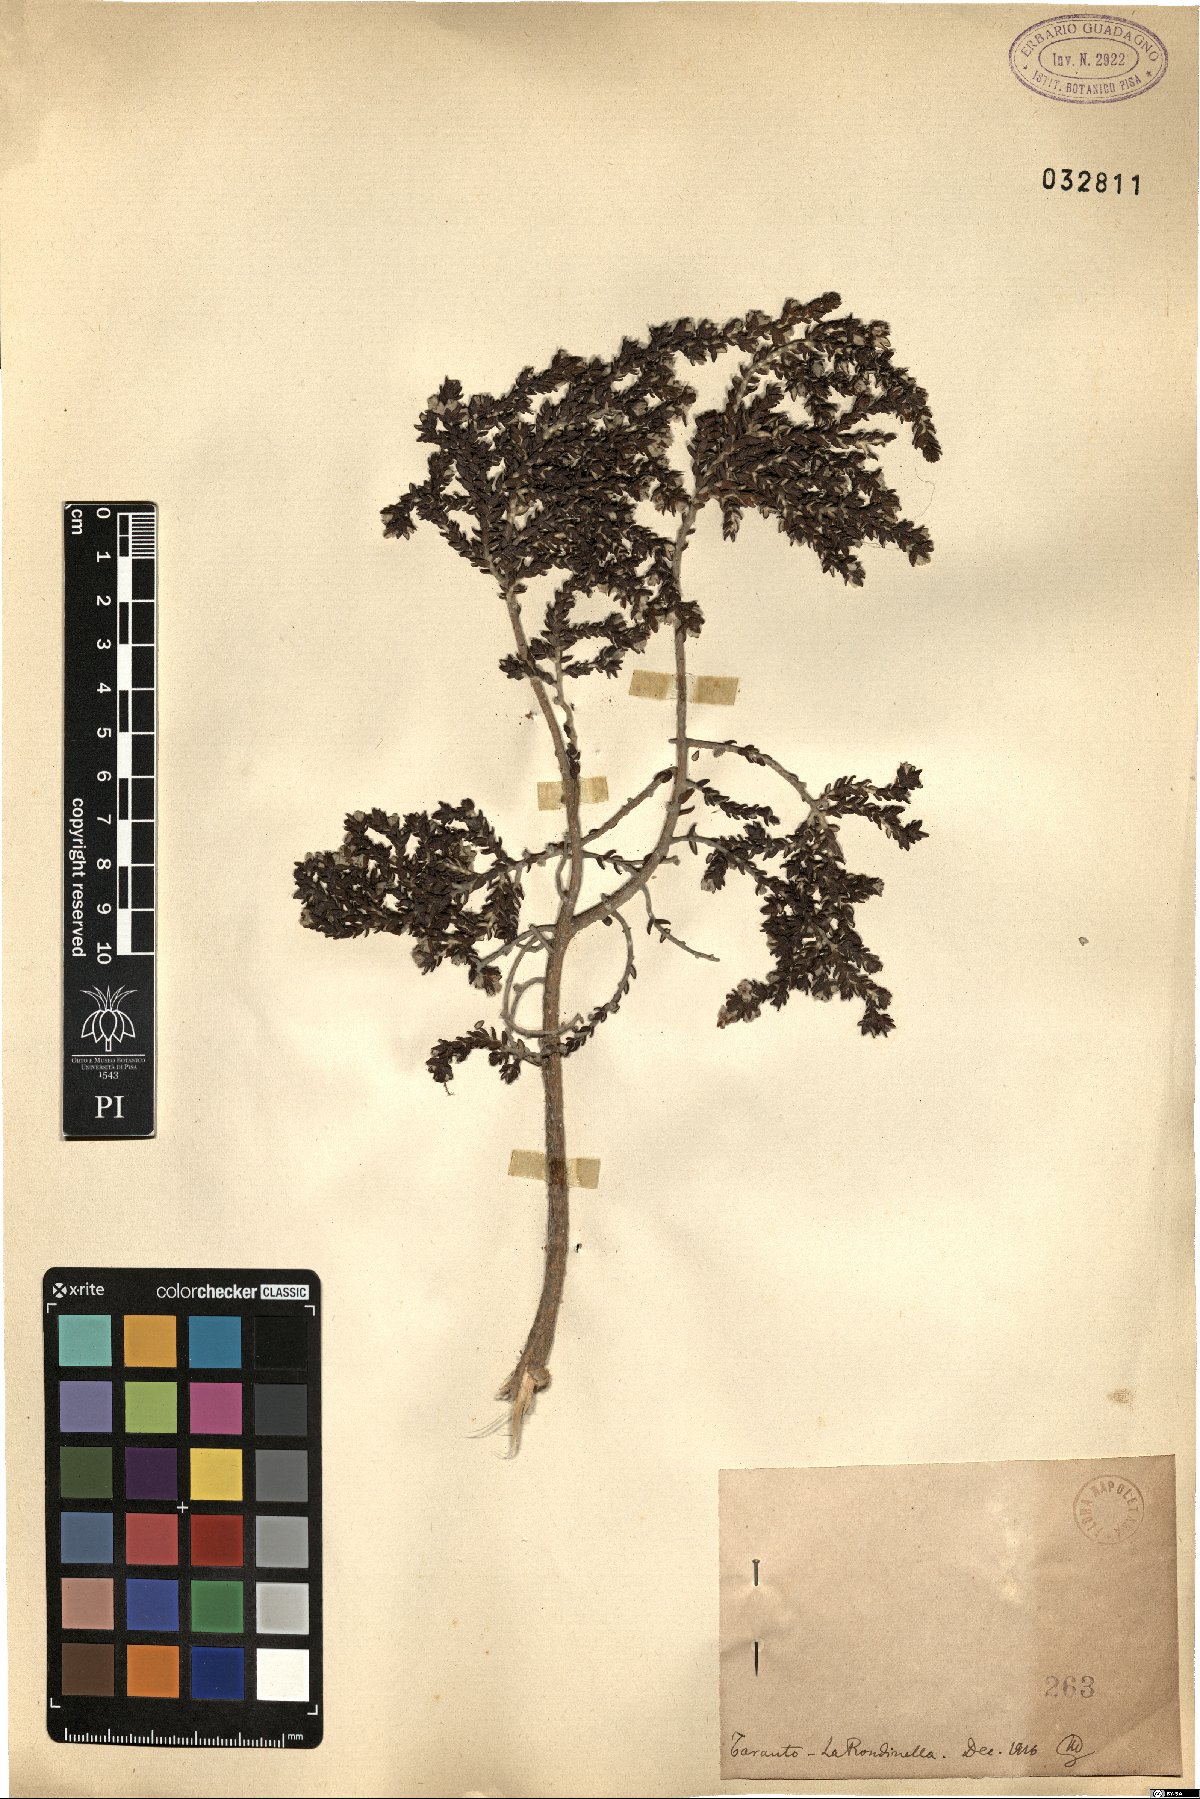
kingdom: Plantae
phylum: Tracheophyta
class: Magnoliopsida
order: Malvales
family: Thymelaeaceae
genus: Thymelaea
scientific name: Thymelaea
